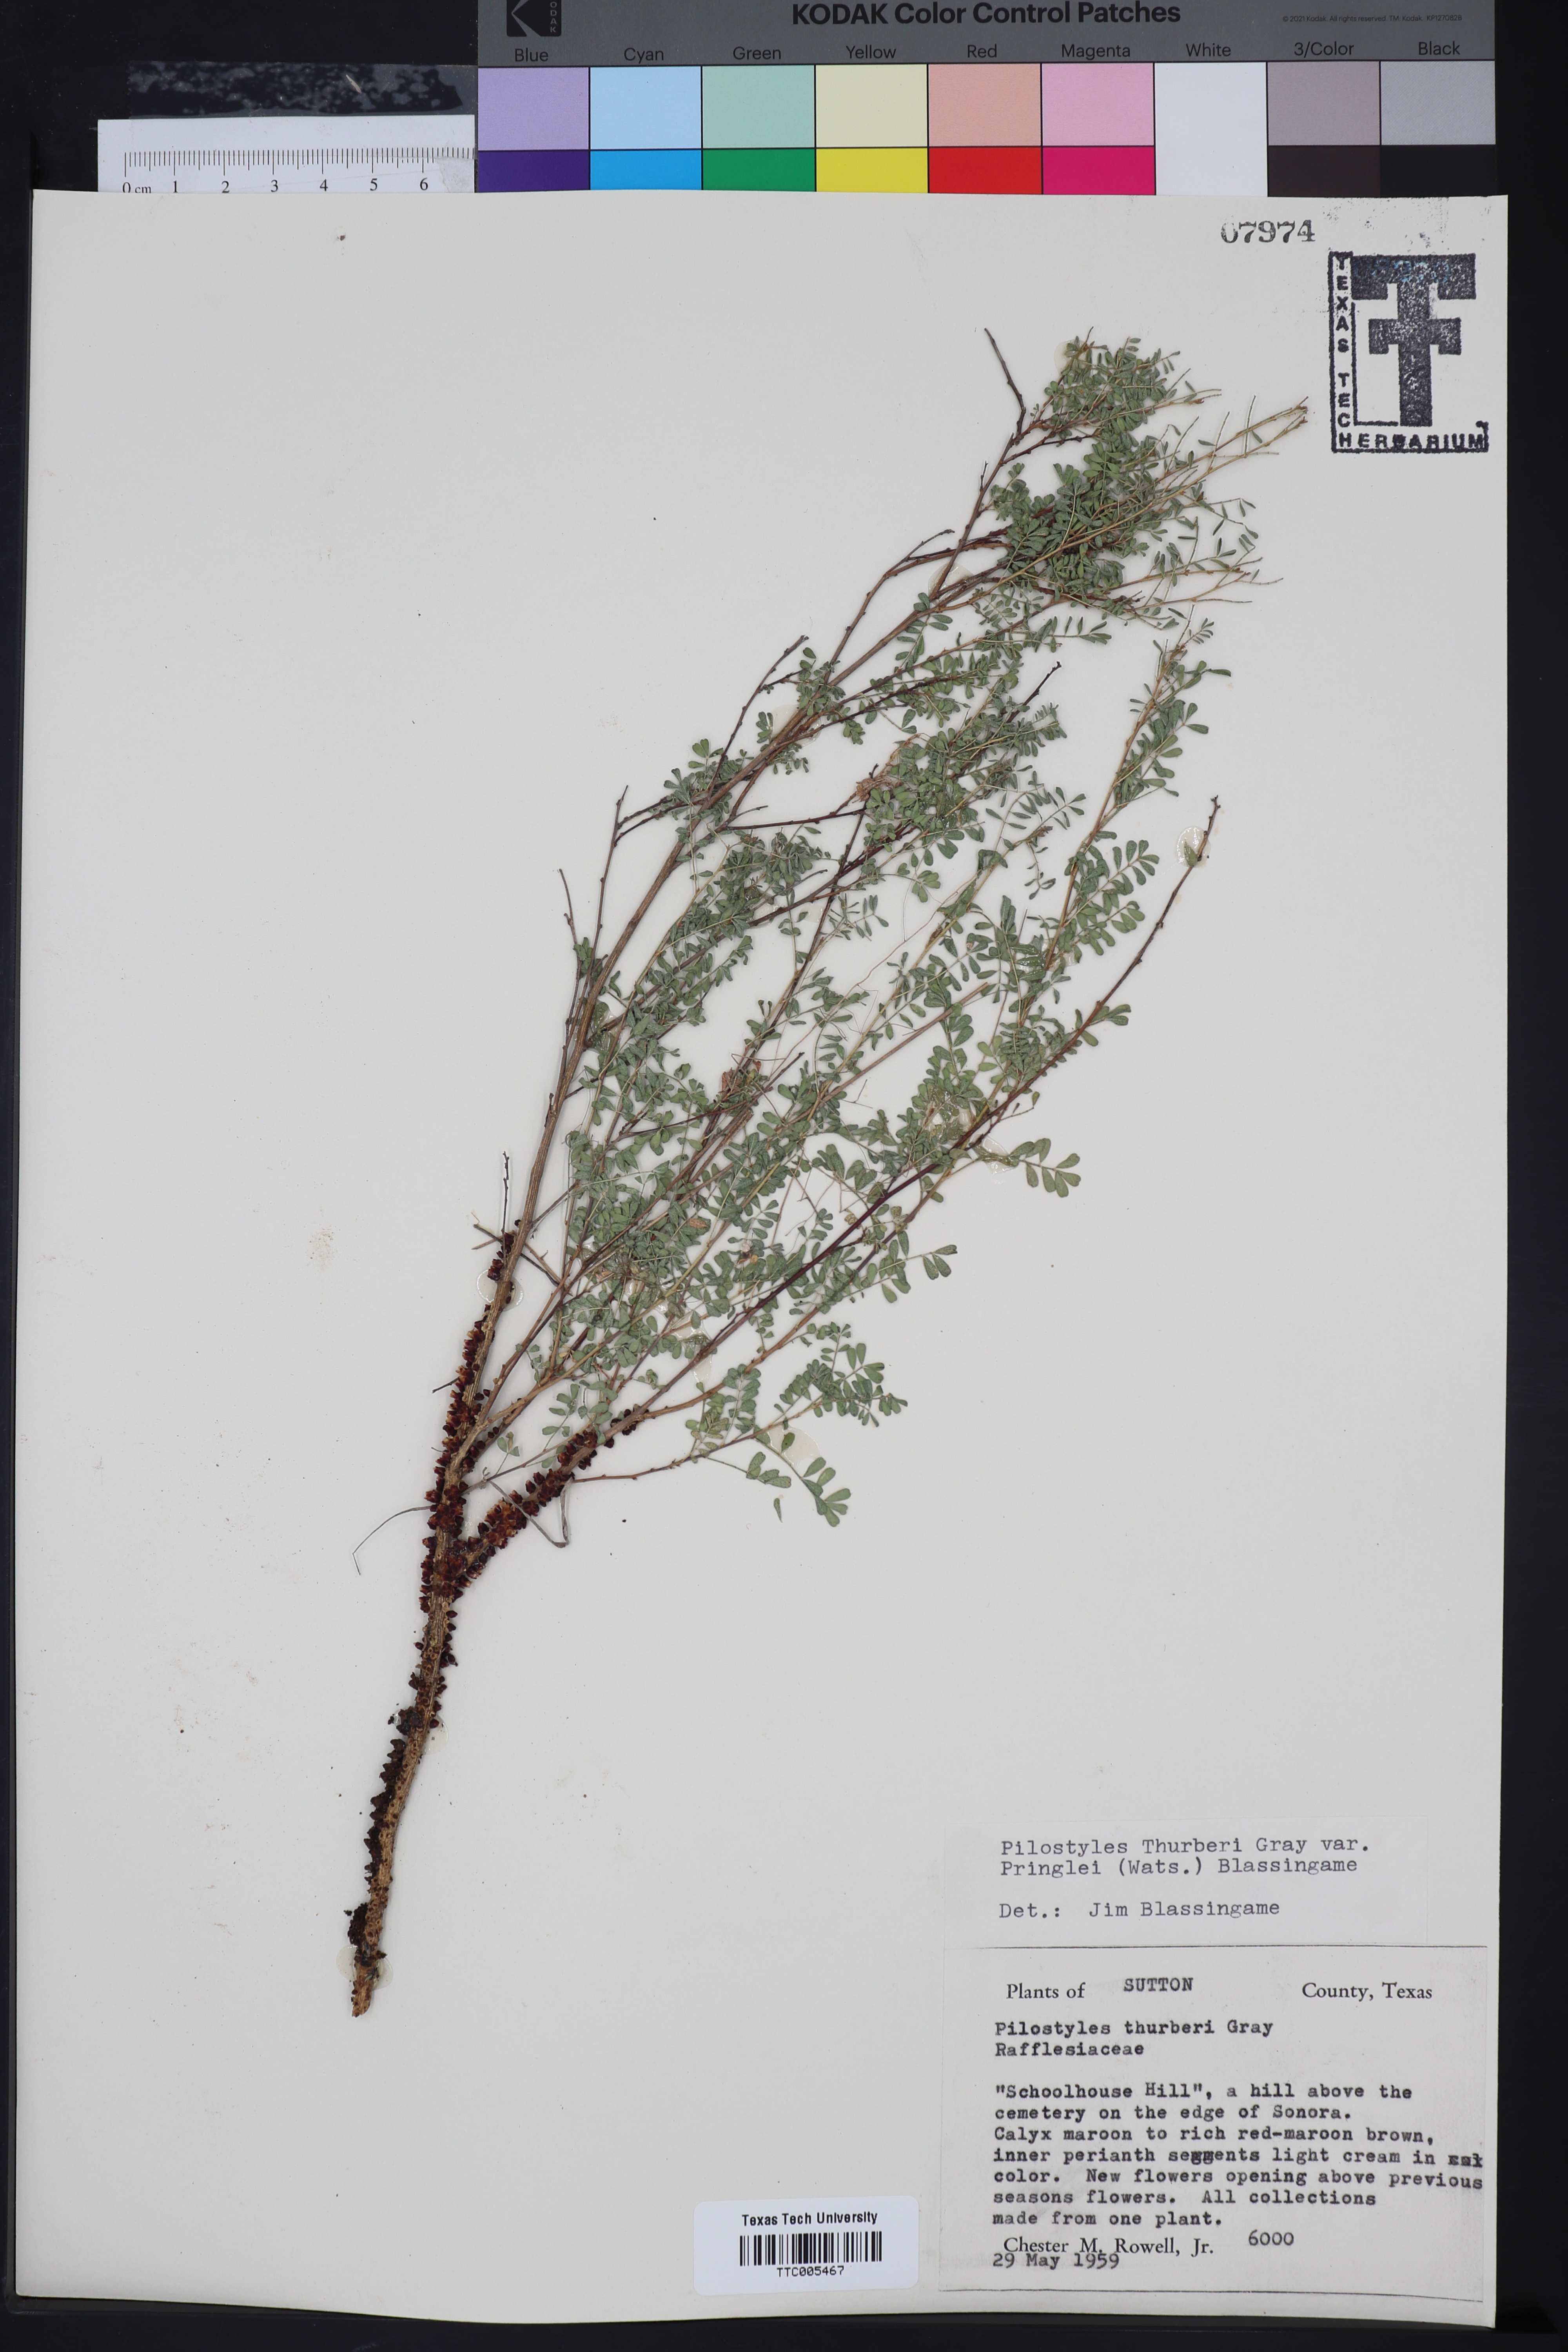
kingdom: Plantae
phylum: Tracheophyta
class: Magnoliopsida
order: Cucurbitales
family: Apodanthaceae
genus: Pilostyles
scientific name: Pilostyles thurberi
